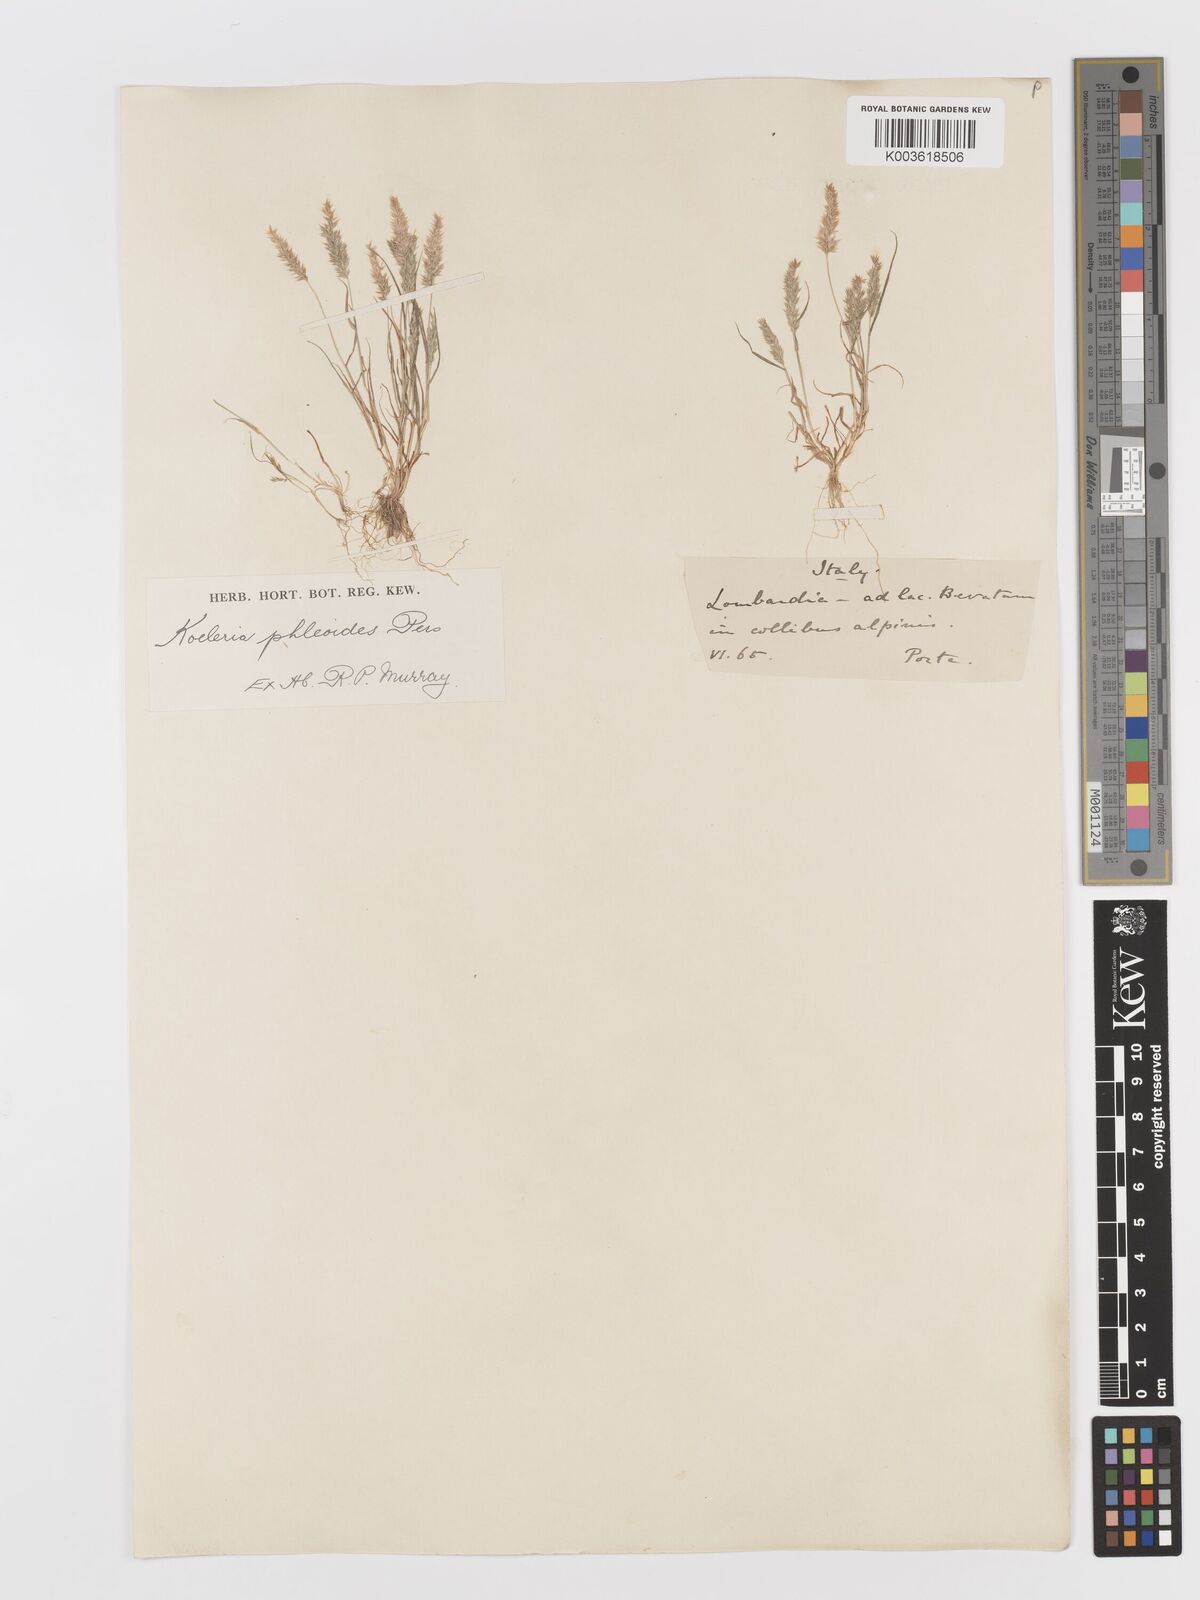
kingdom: Plantae
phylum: Tracheophyta
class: Liliopsida
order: Poales
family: Poaceae
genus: Rostraria
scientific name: Rostraria cristata
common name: Mediterranean hair-grass
